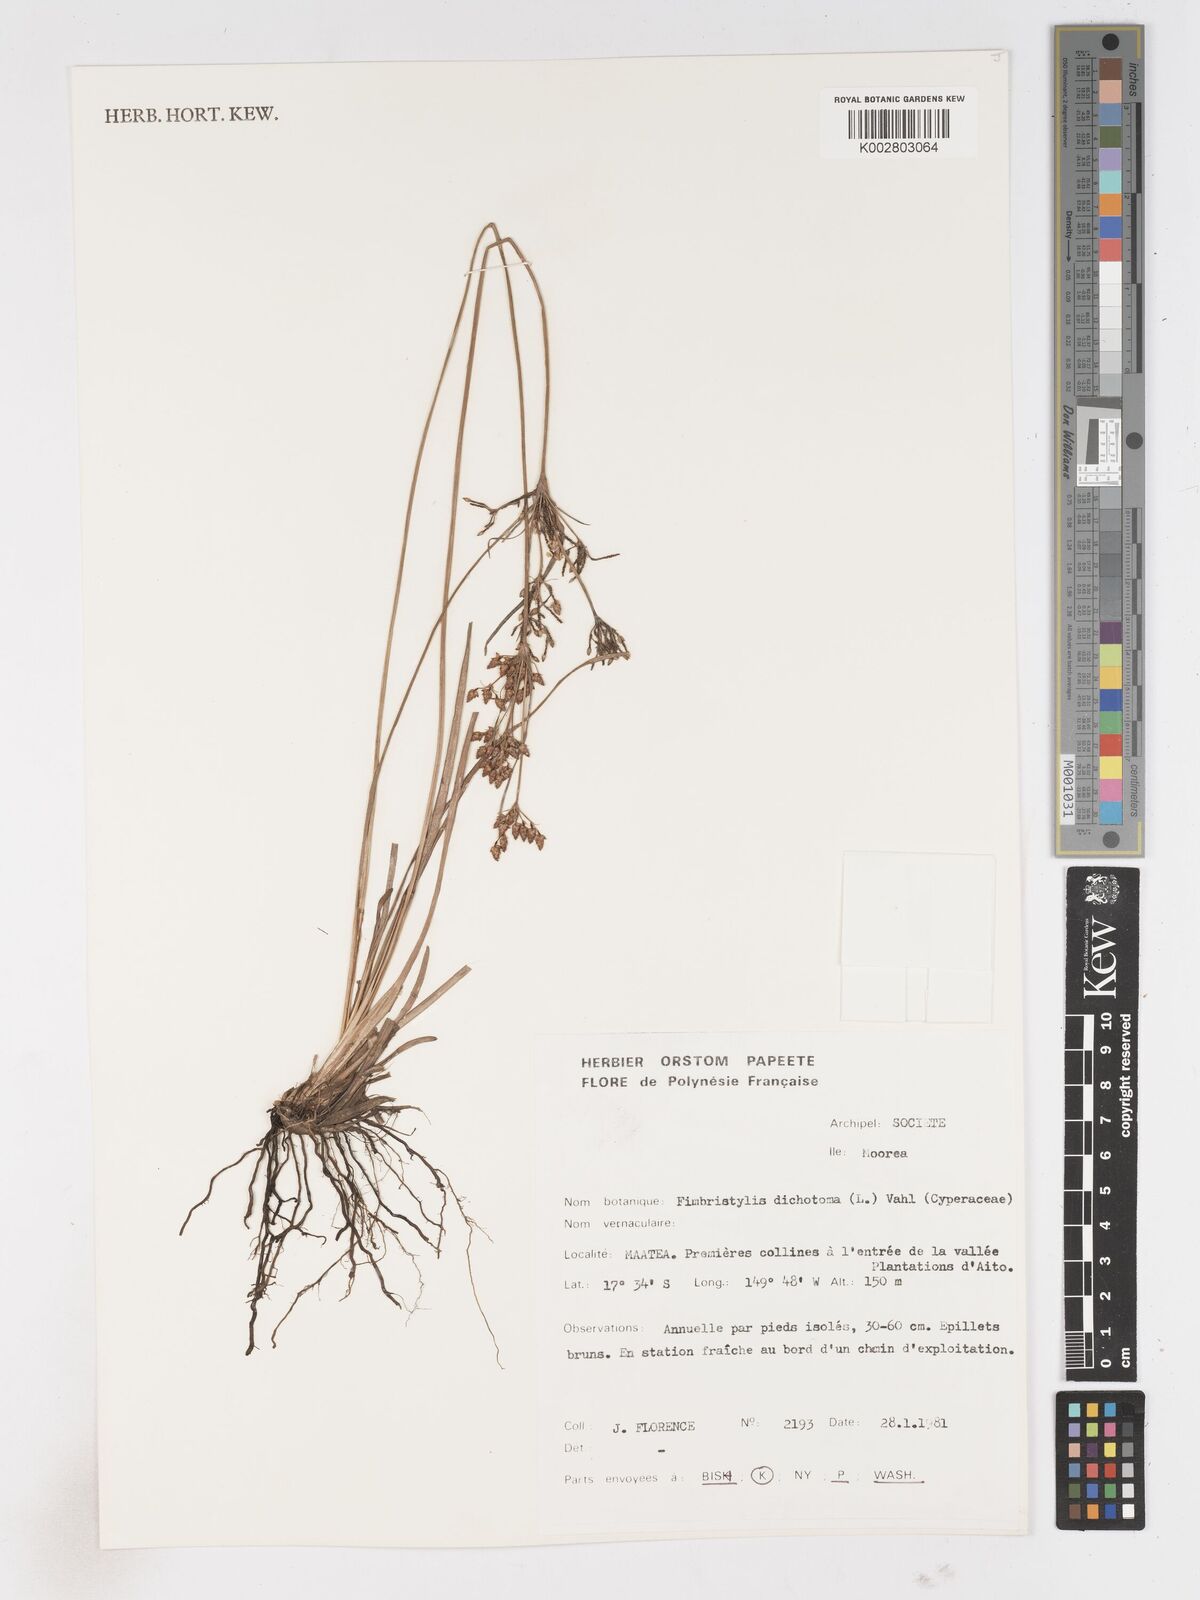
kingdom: Plantae
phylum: Tracheophyta
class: Liliopsida
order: Poales
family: Cyperaceae
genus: Fimbristylis
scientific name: Fimbristylis dichotoma
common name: Forked fimbry
